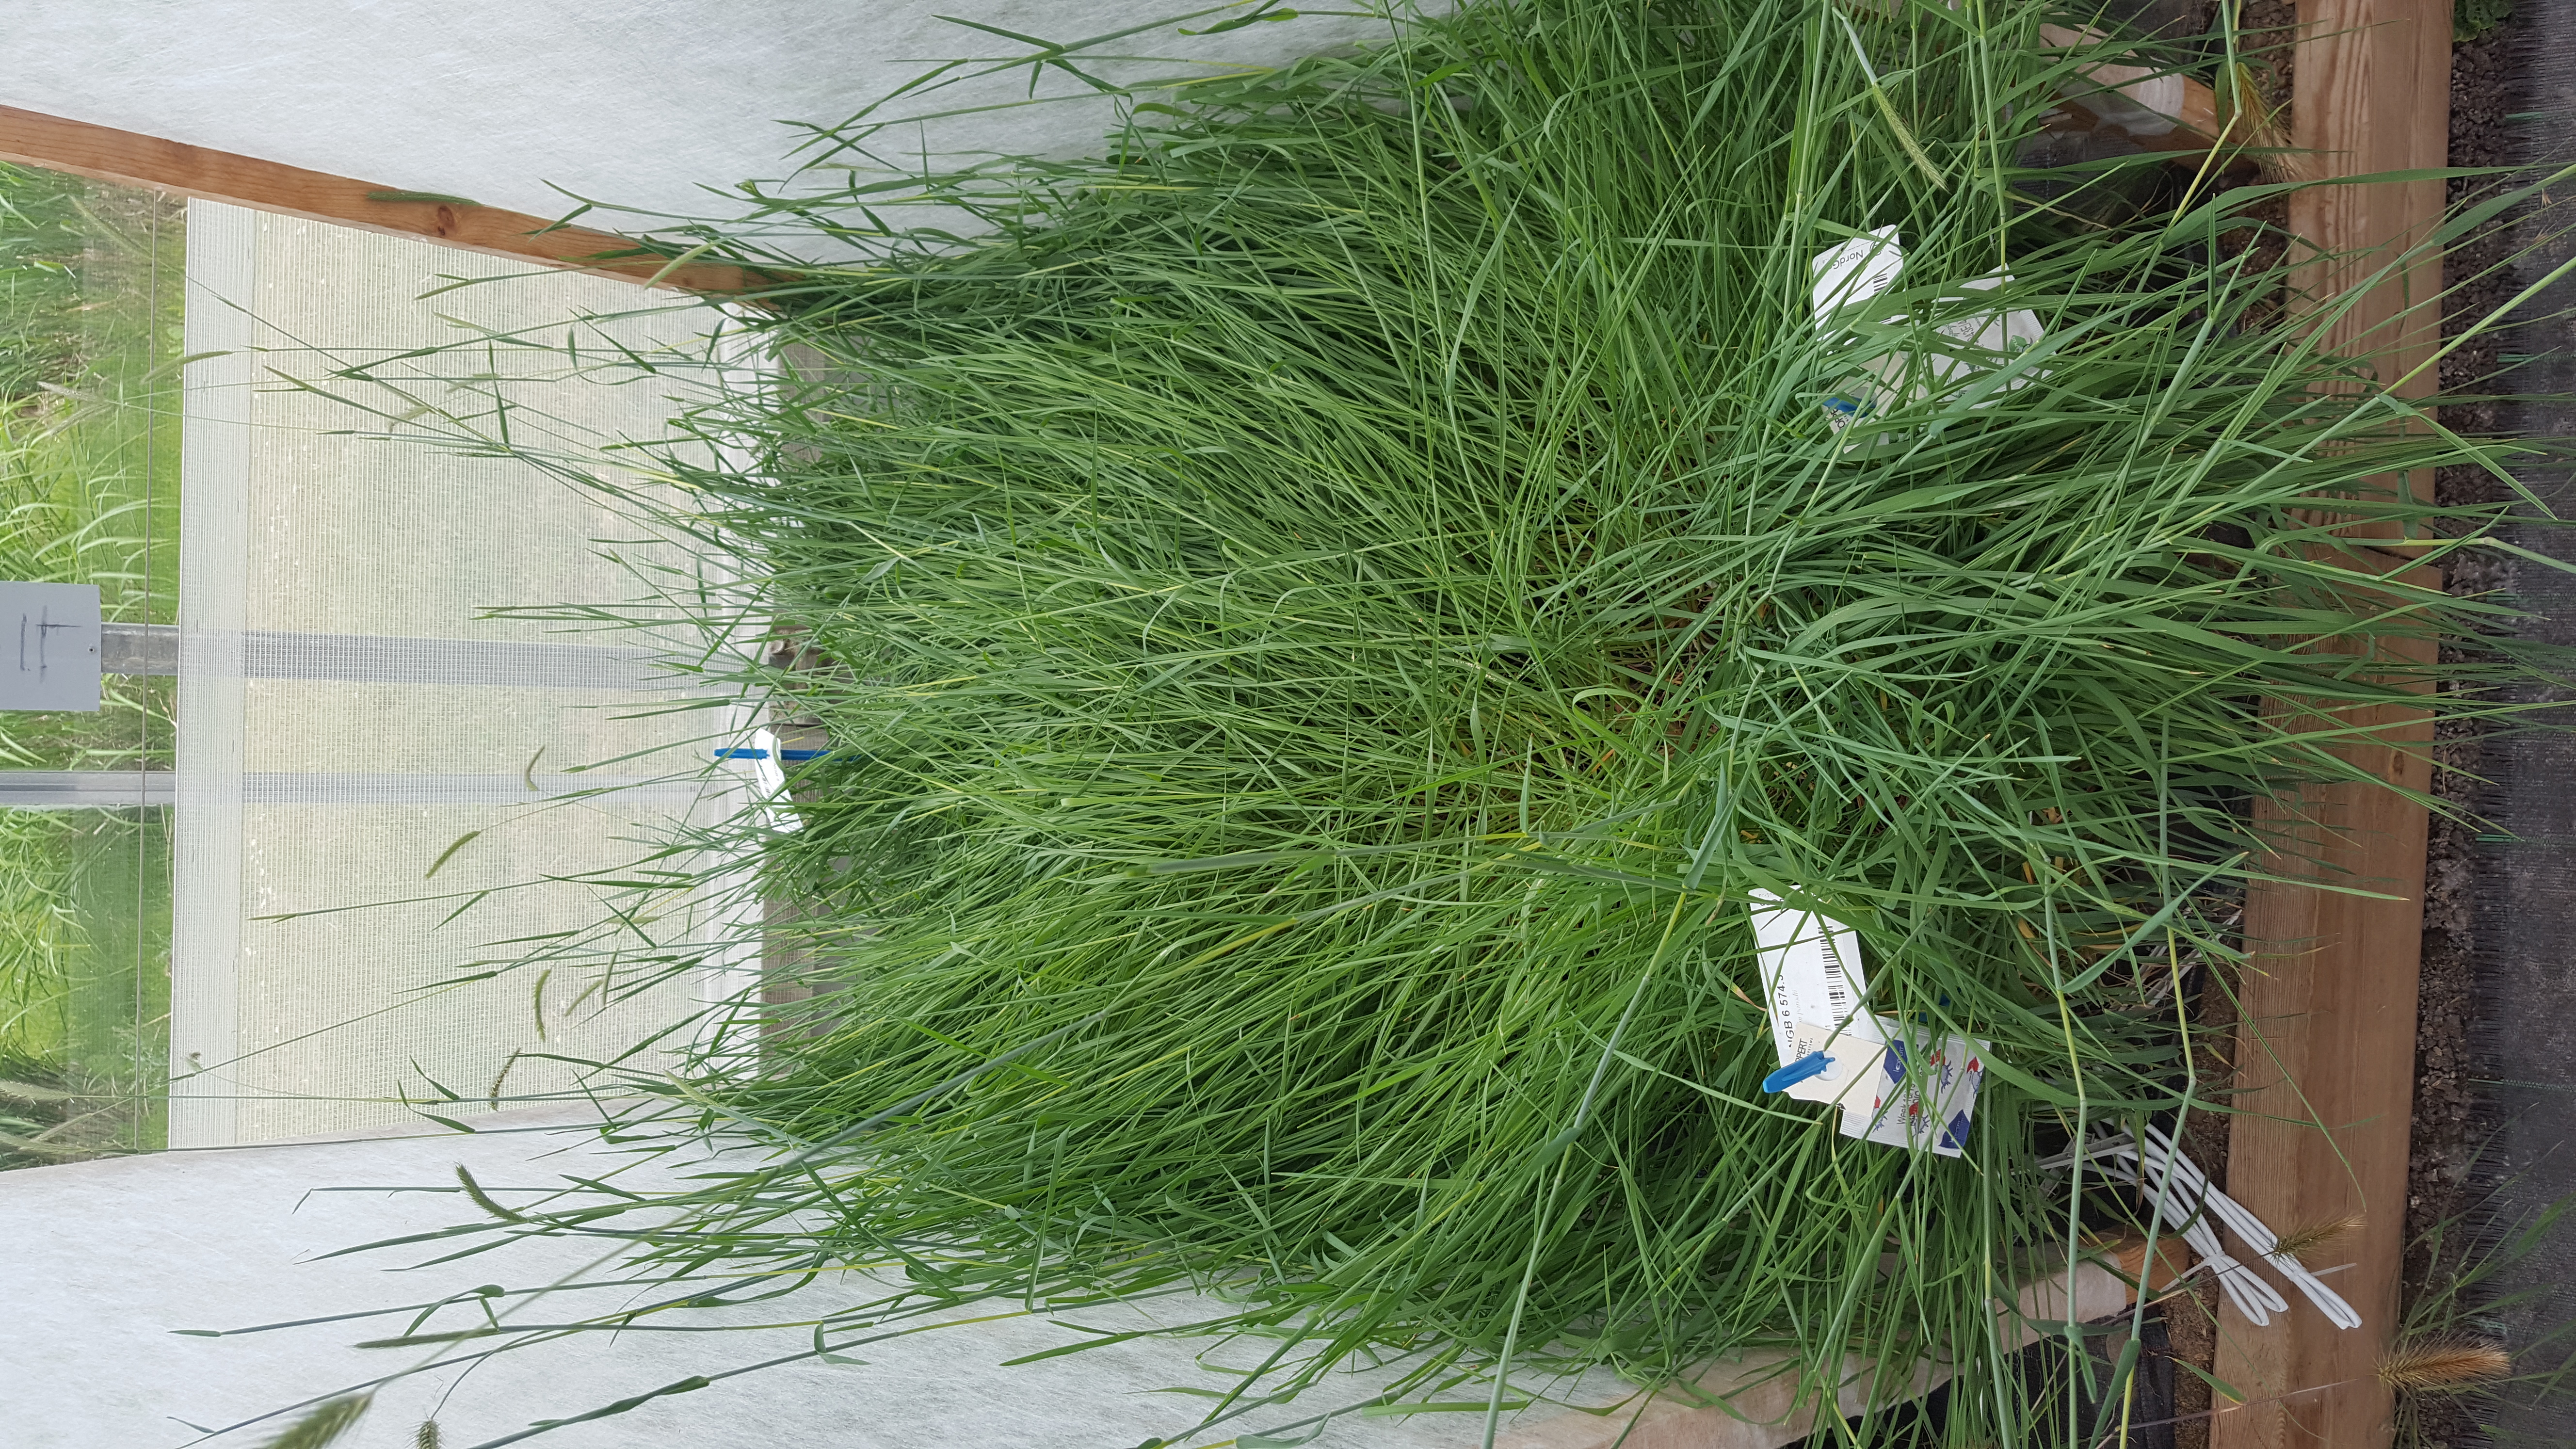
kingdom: Plantae
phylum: Tracheophyta
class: Liliopsida
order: Poales
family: Poaceae
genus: Hordeum
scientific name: Hordeum parodii
